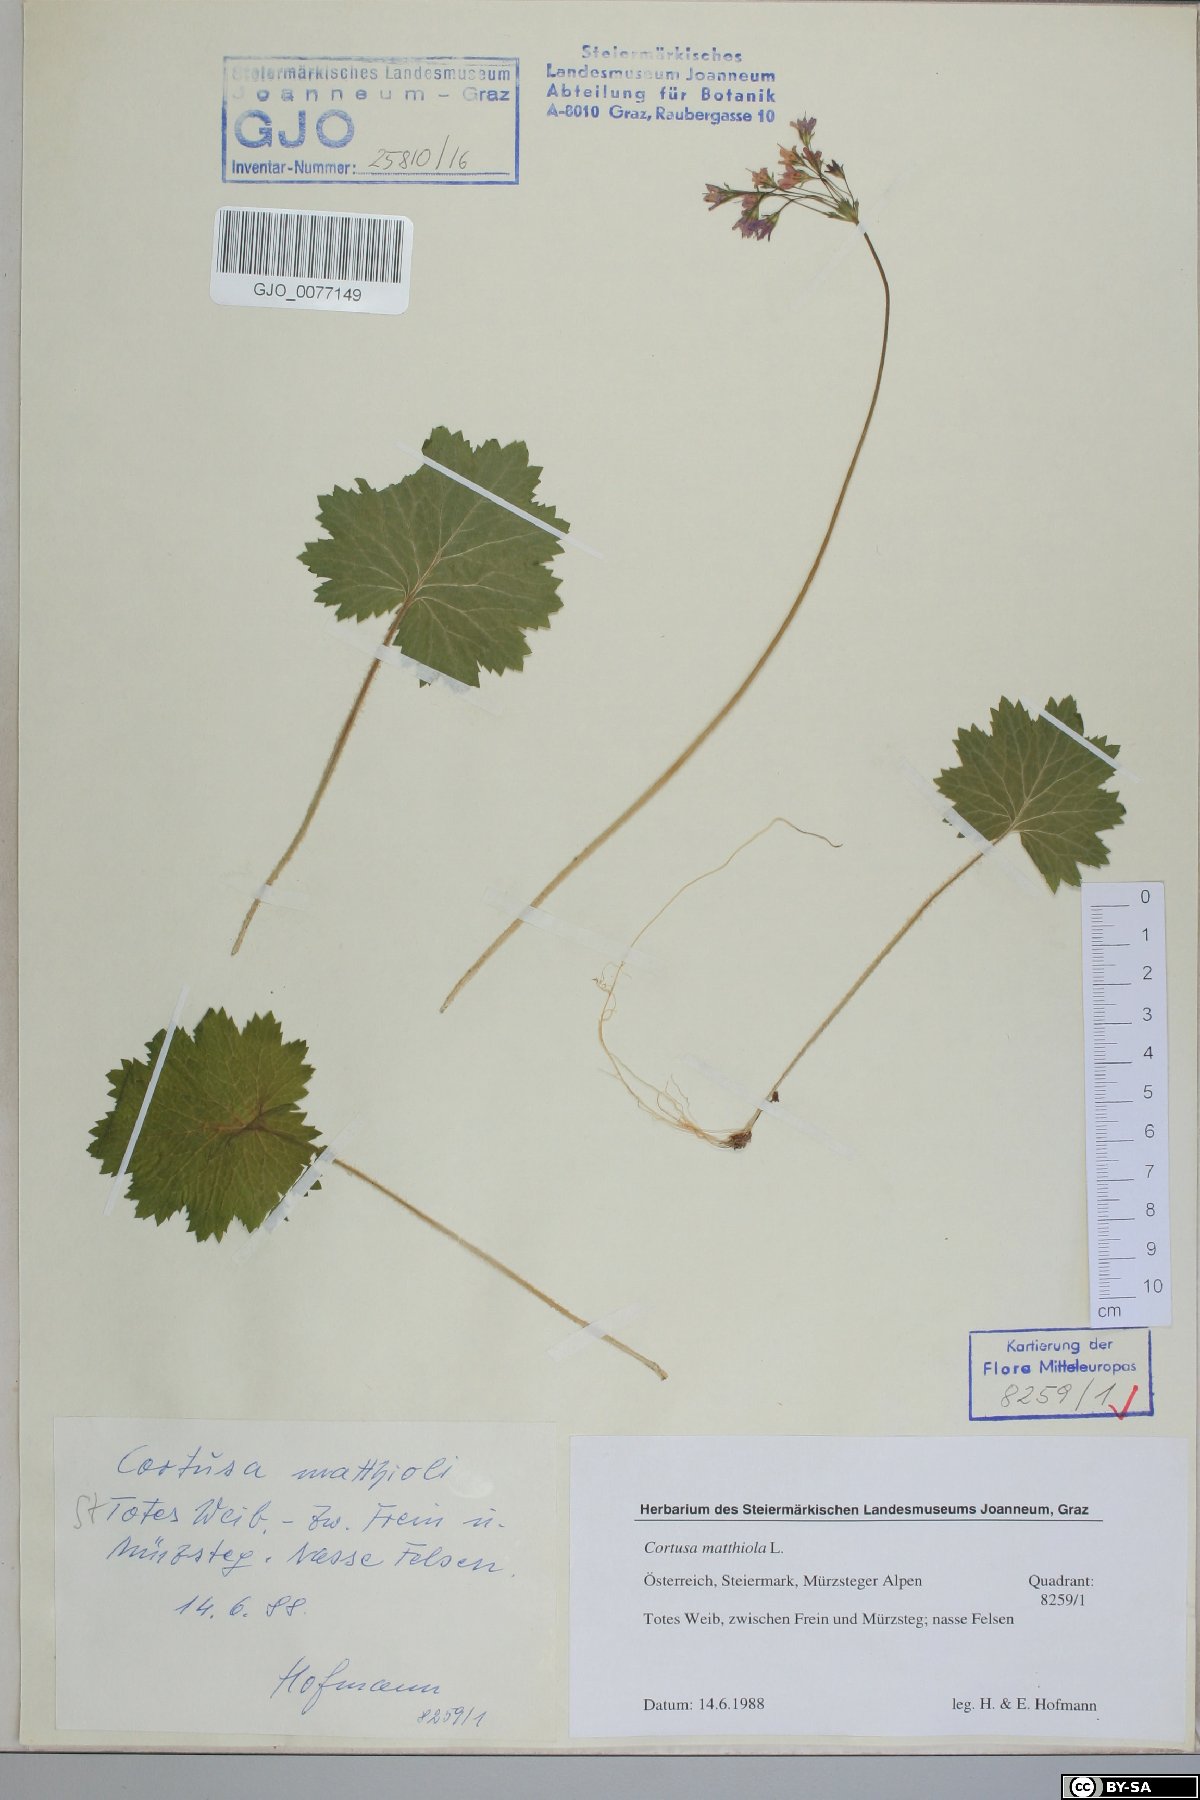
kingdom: Plantae
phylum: Tracheophyta
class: Magnoliopsida
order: Ericales
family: Primulaceae
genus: Primula
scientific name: Primula matthioli
